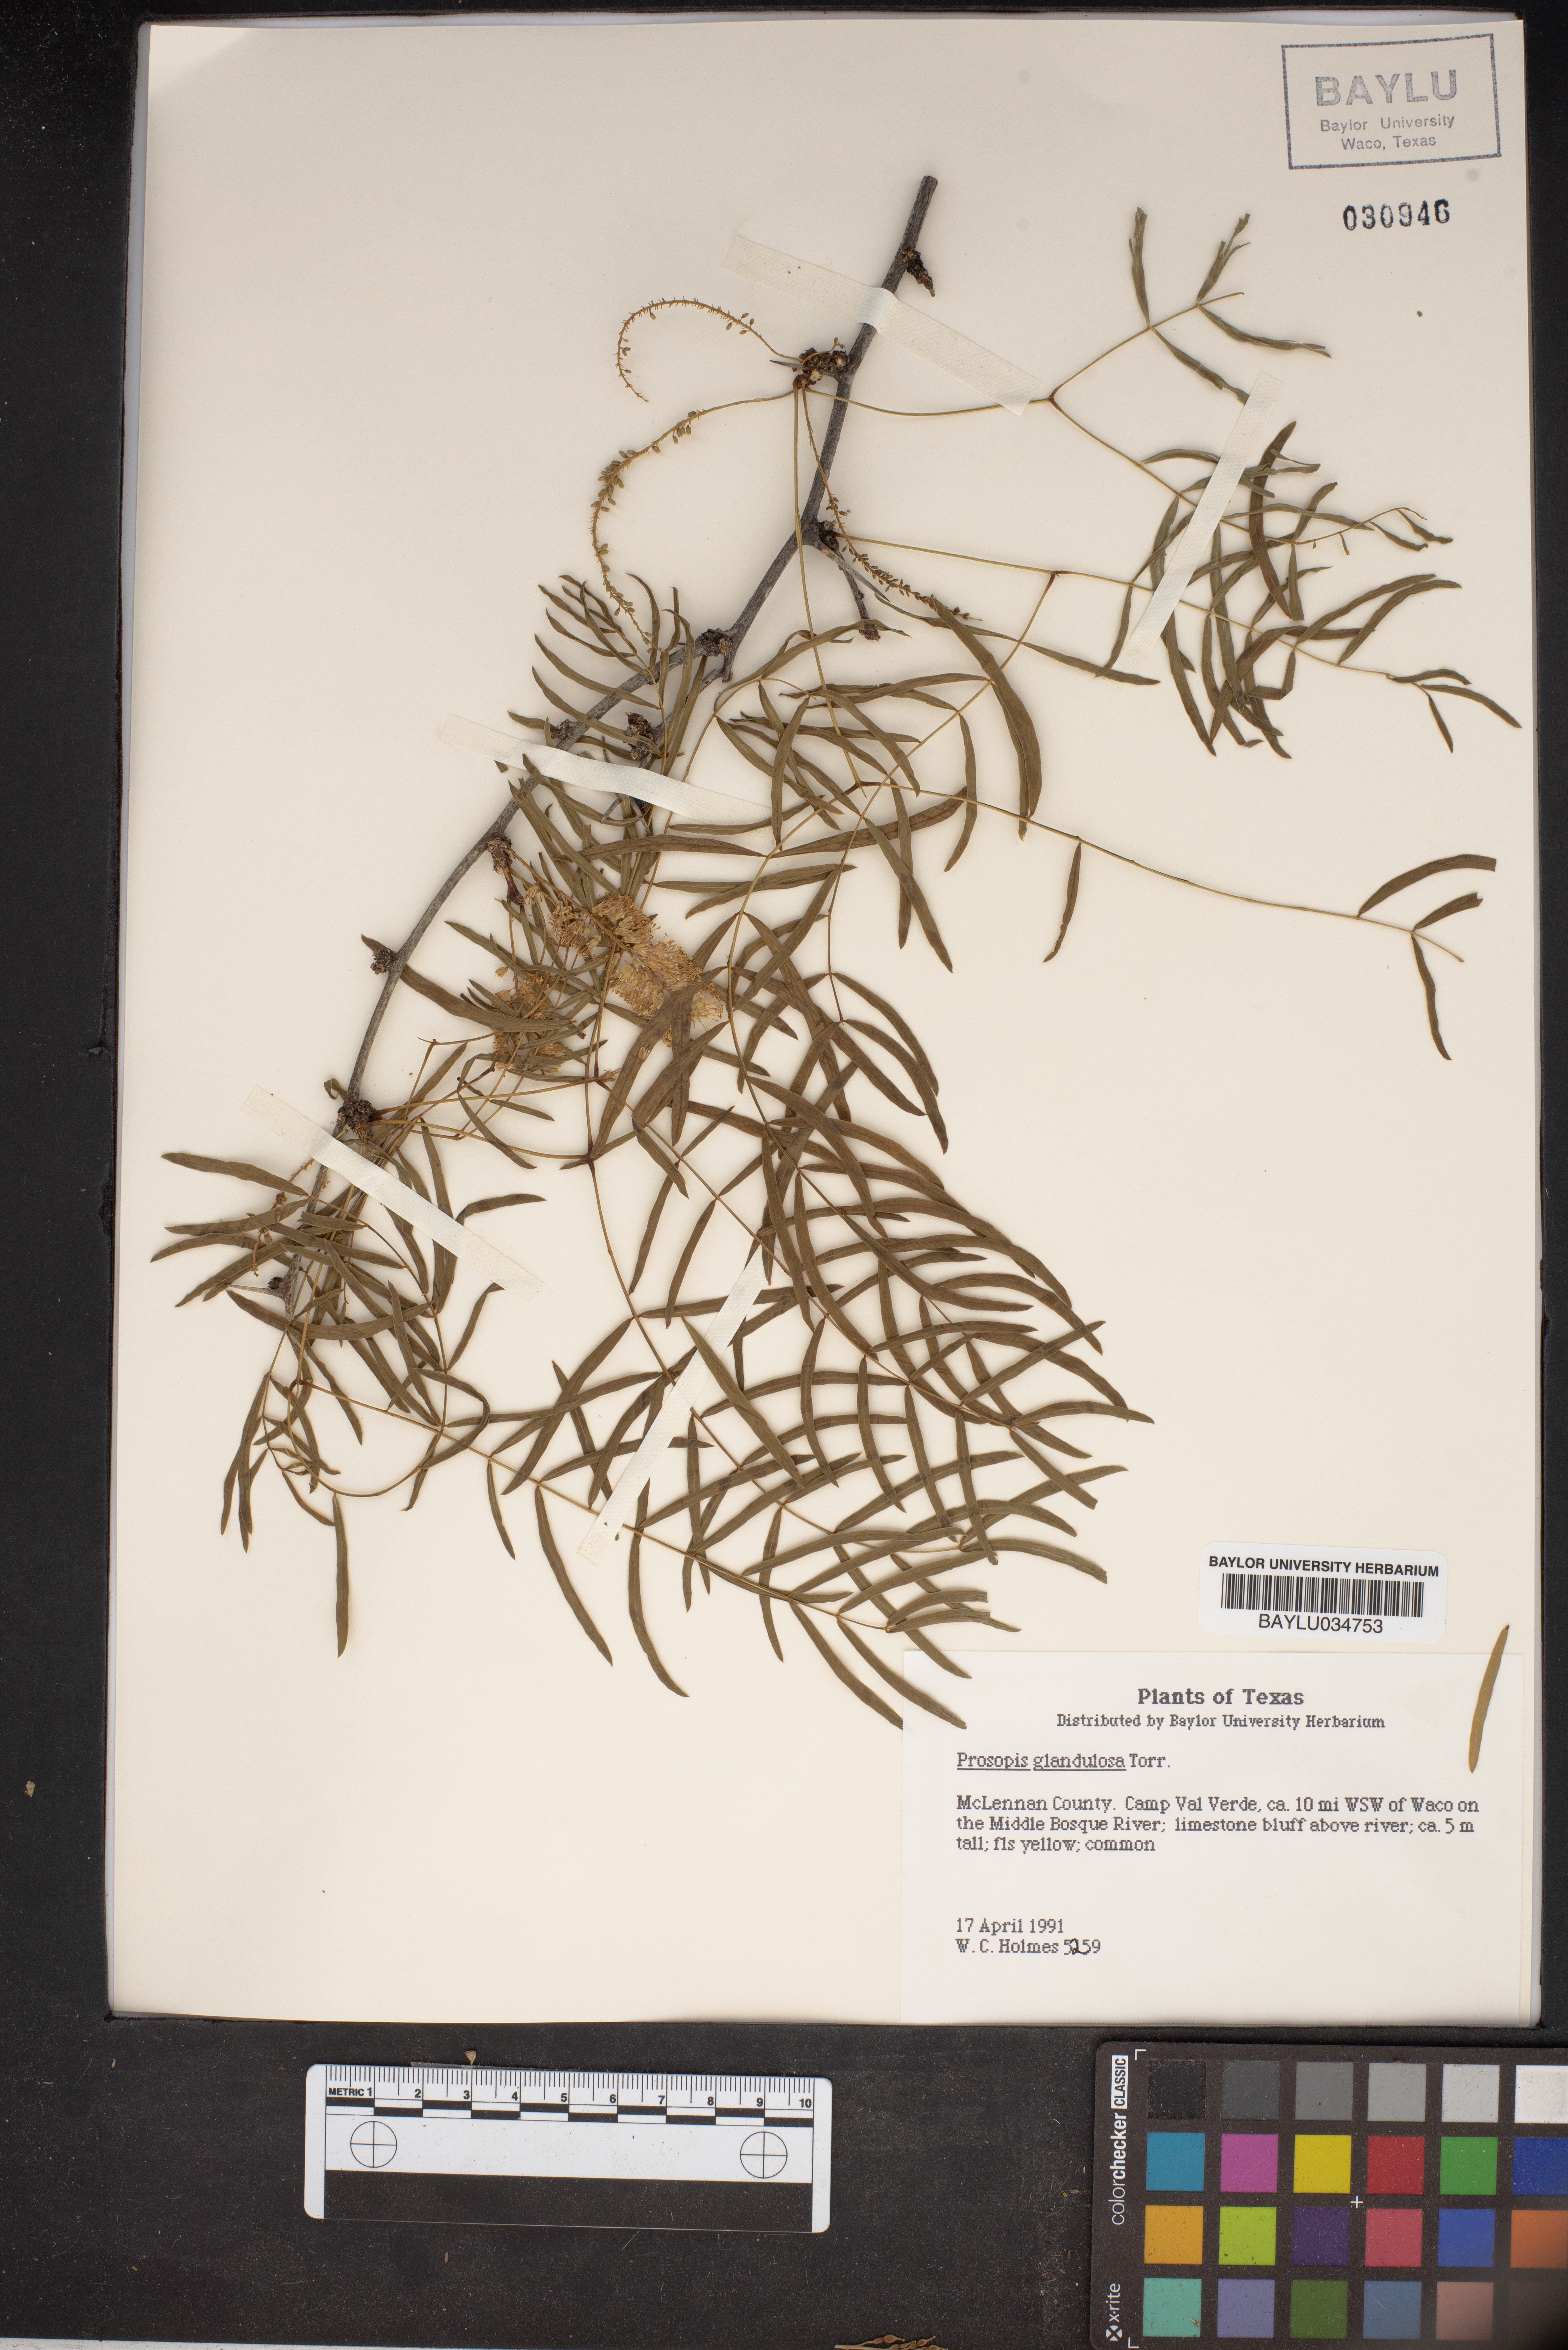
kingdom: Plantae
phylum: Tracheophyta
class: Magnoliopsida
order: Fabales
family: Fabaceae
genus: Prosopis
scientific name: Prosopis glandulosa
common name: Honey mesquite
